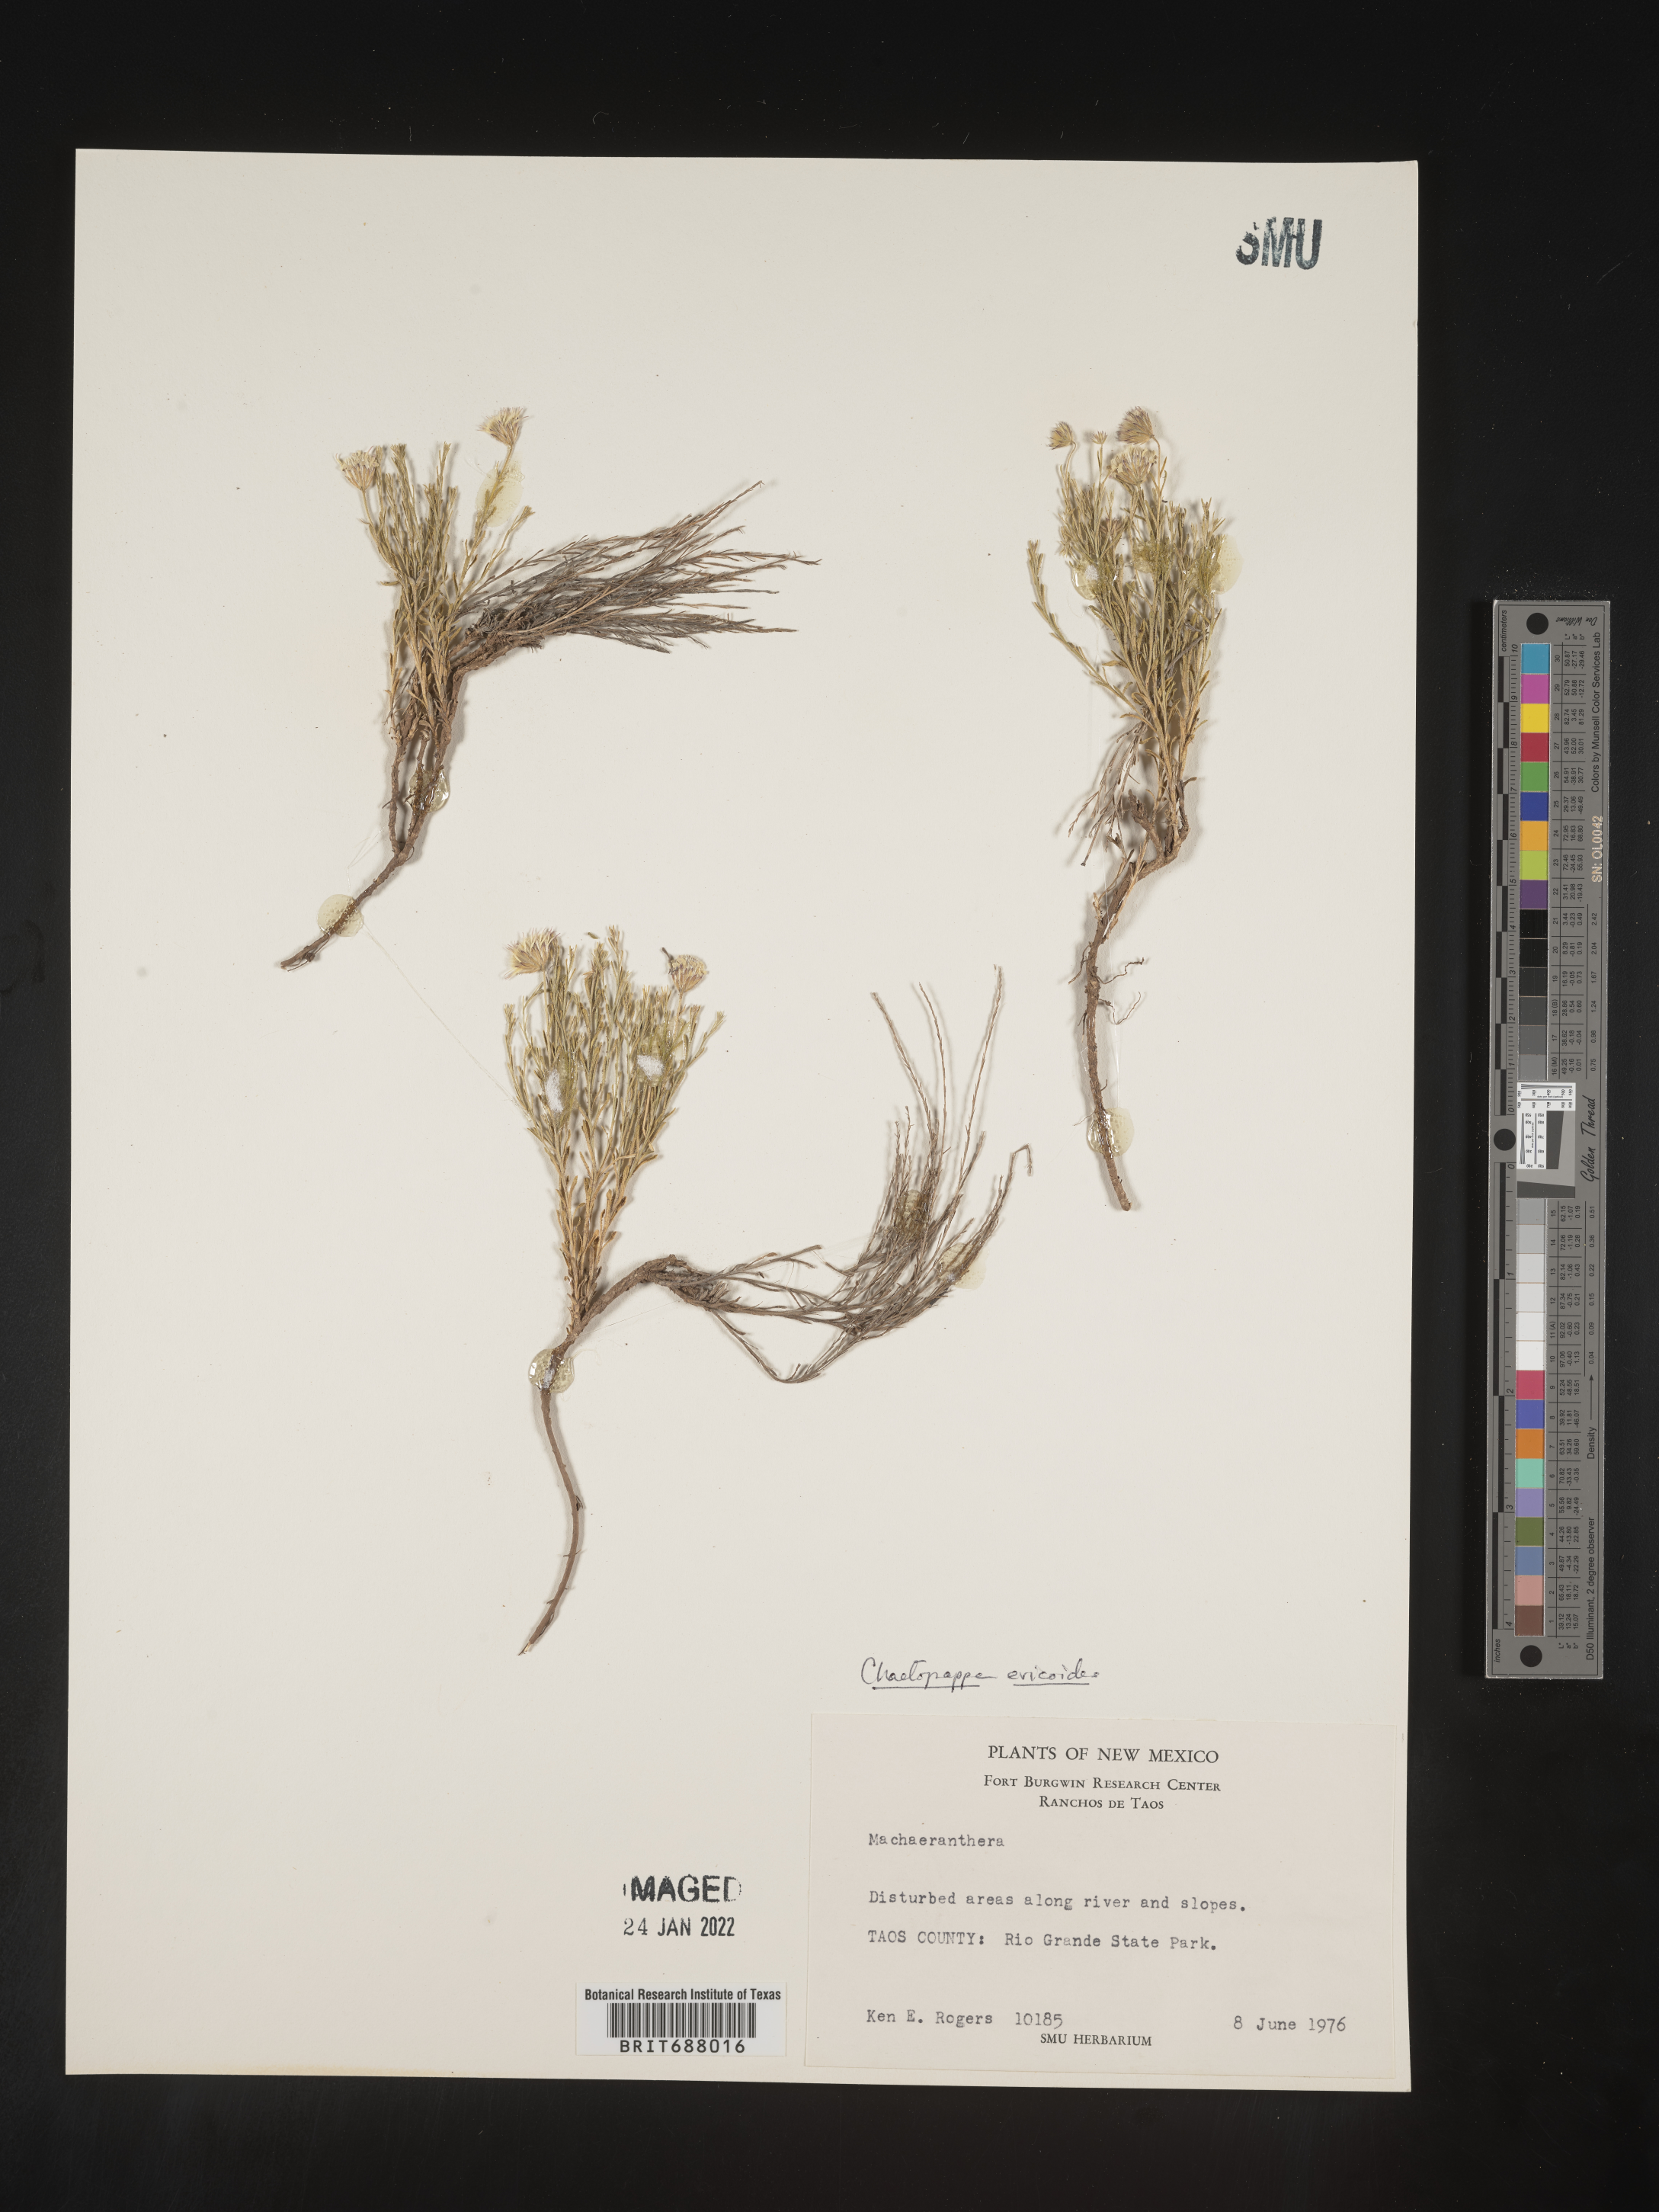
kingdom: Plantae
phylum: Tracheophyta
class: Magnoliopsida
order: Asterales
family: Asteraceae
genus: Chaetopappa
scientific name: Chaetopappa ericoides
